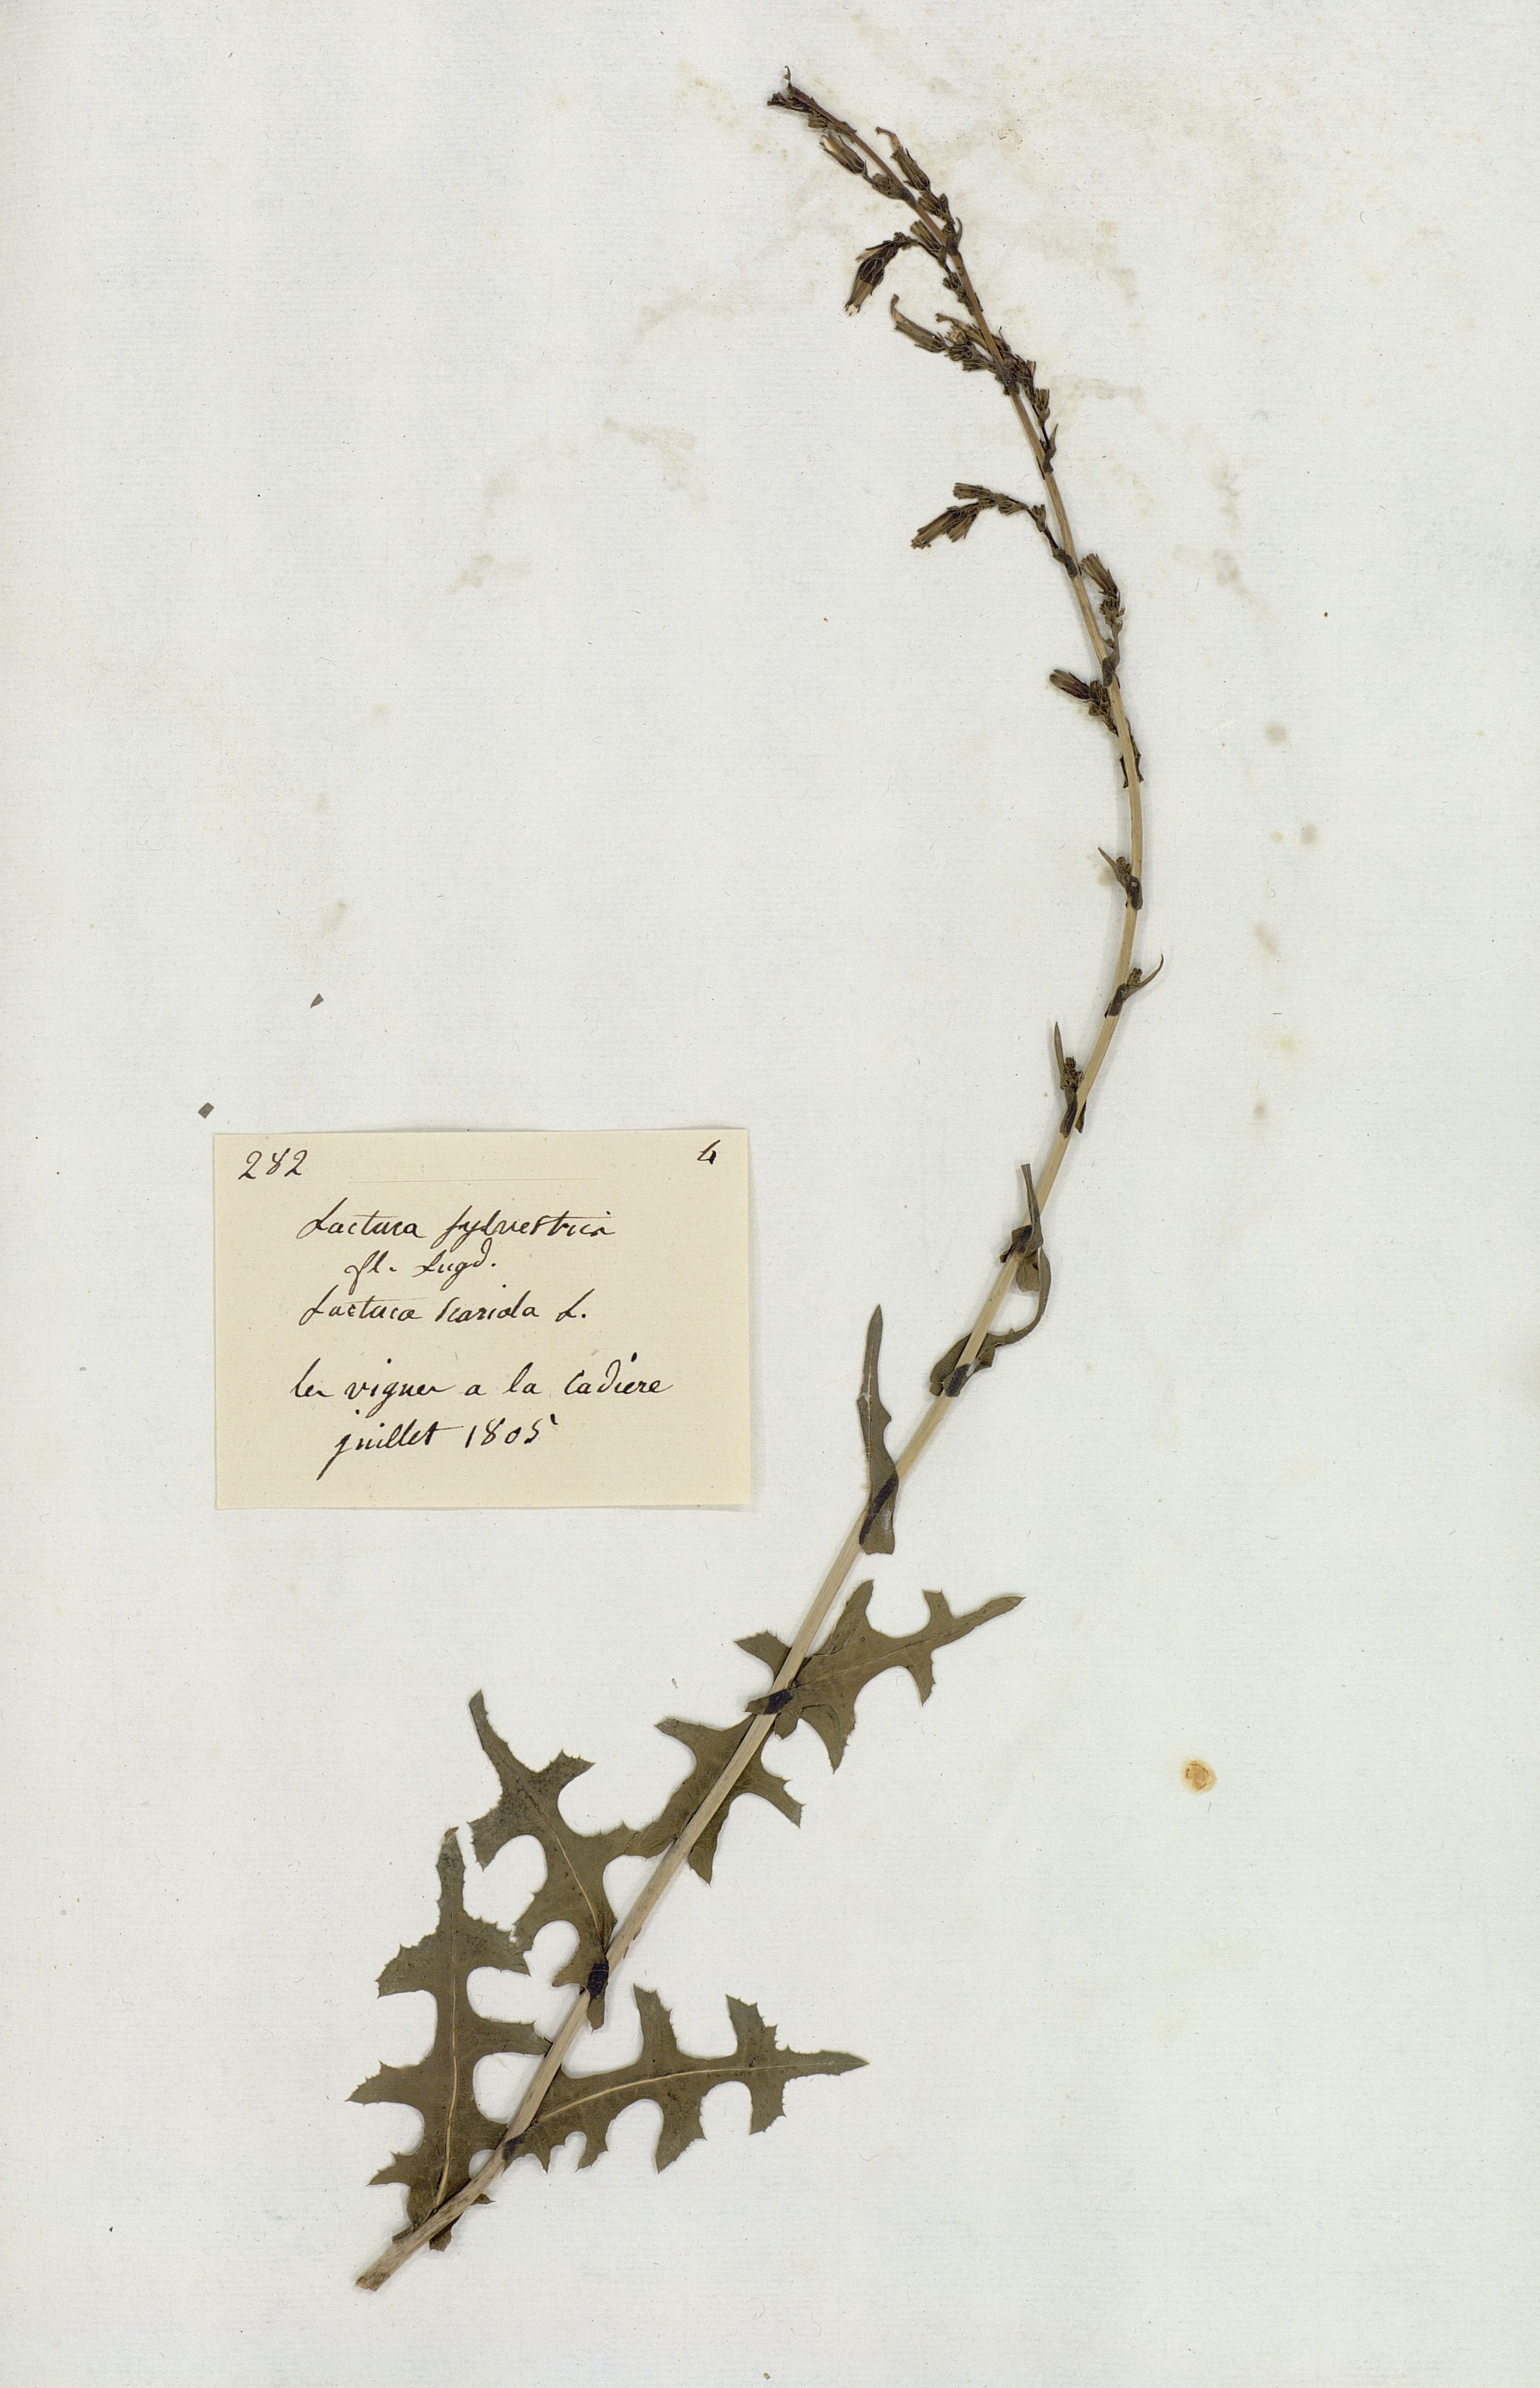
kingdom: Plantae
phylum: Tracheophyta
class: Magnoliopsida
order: Asterales
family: Asteraceae
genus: Lactuca
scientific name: Lactuca serriola
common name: Prickly lettuce
